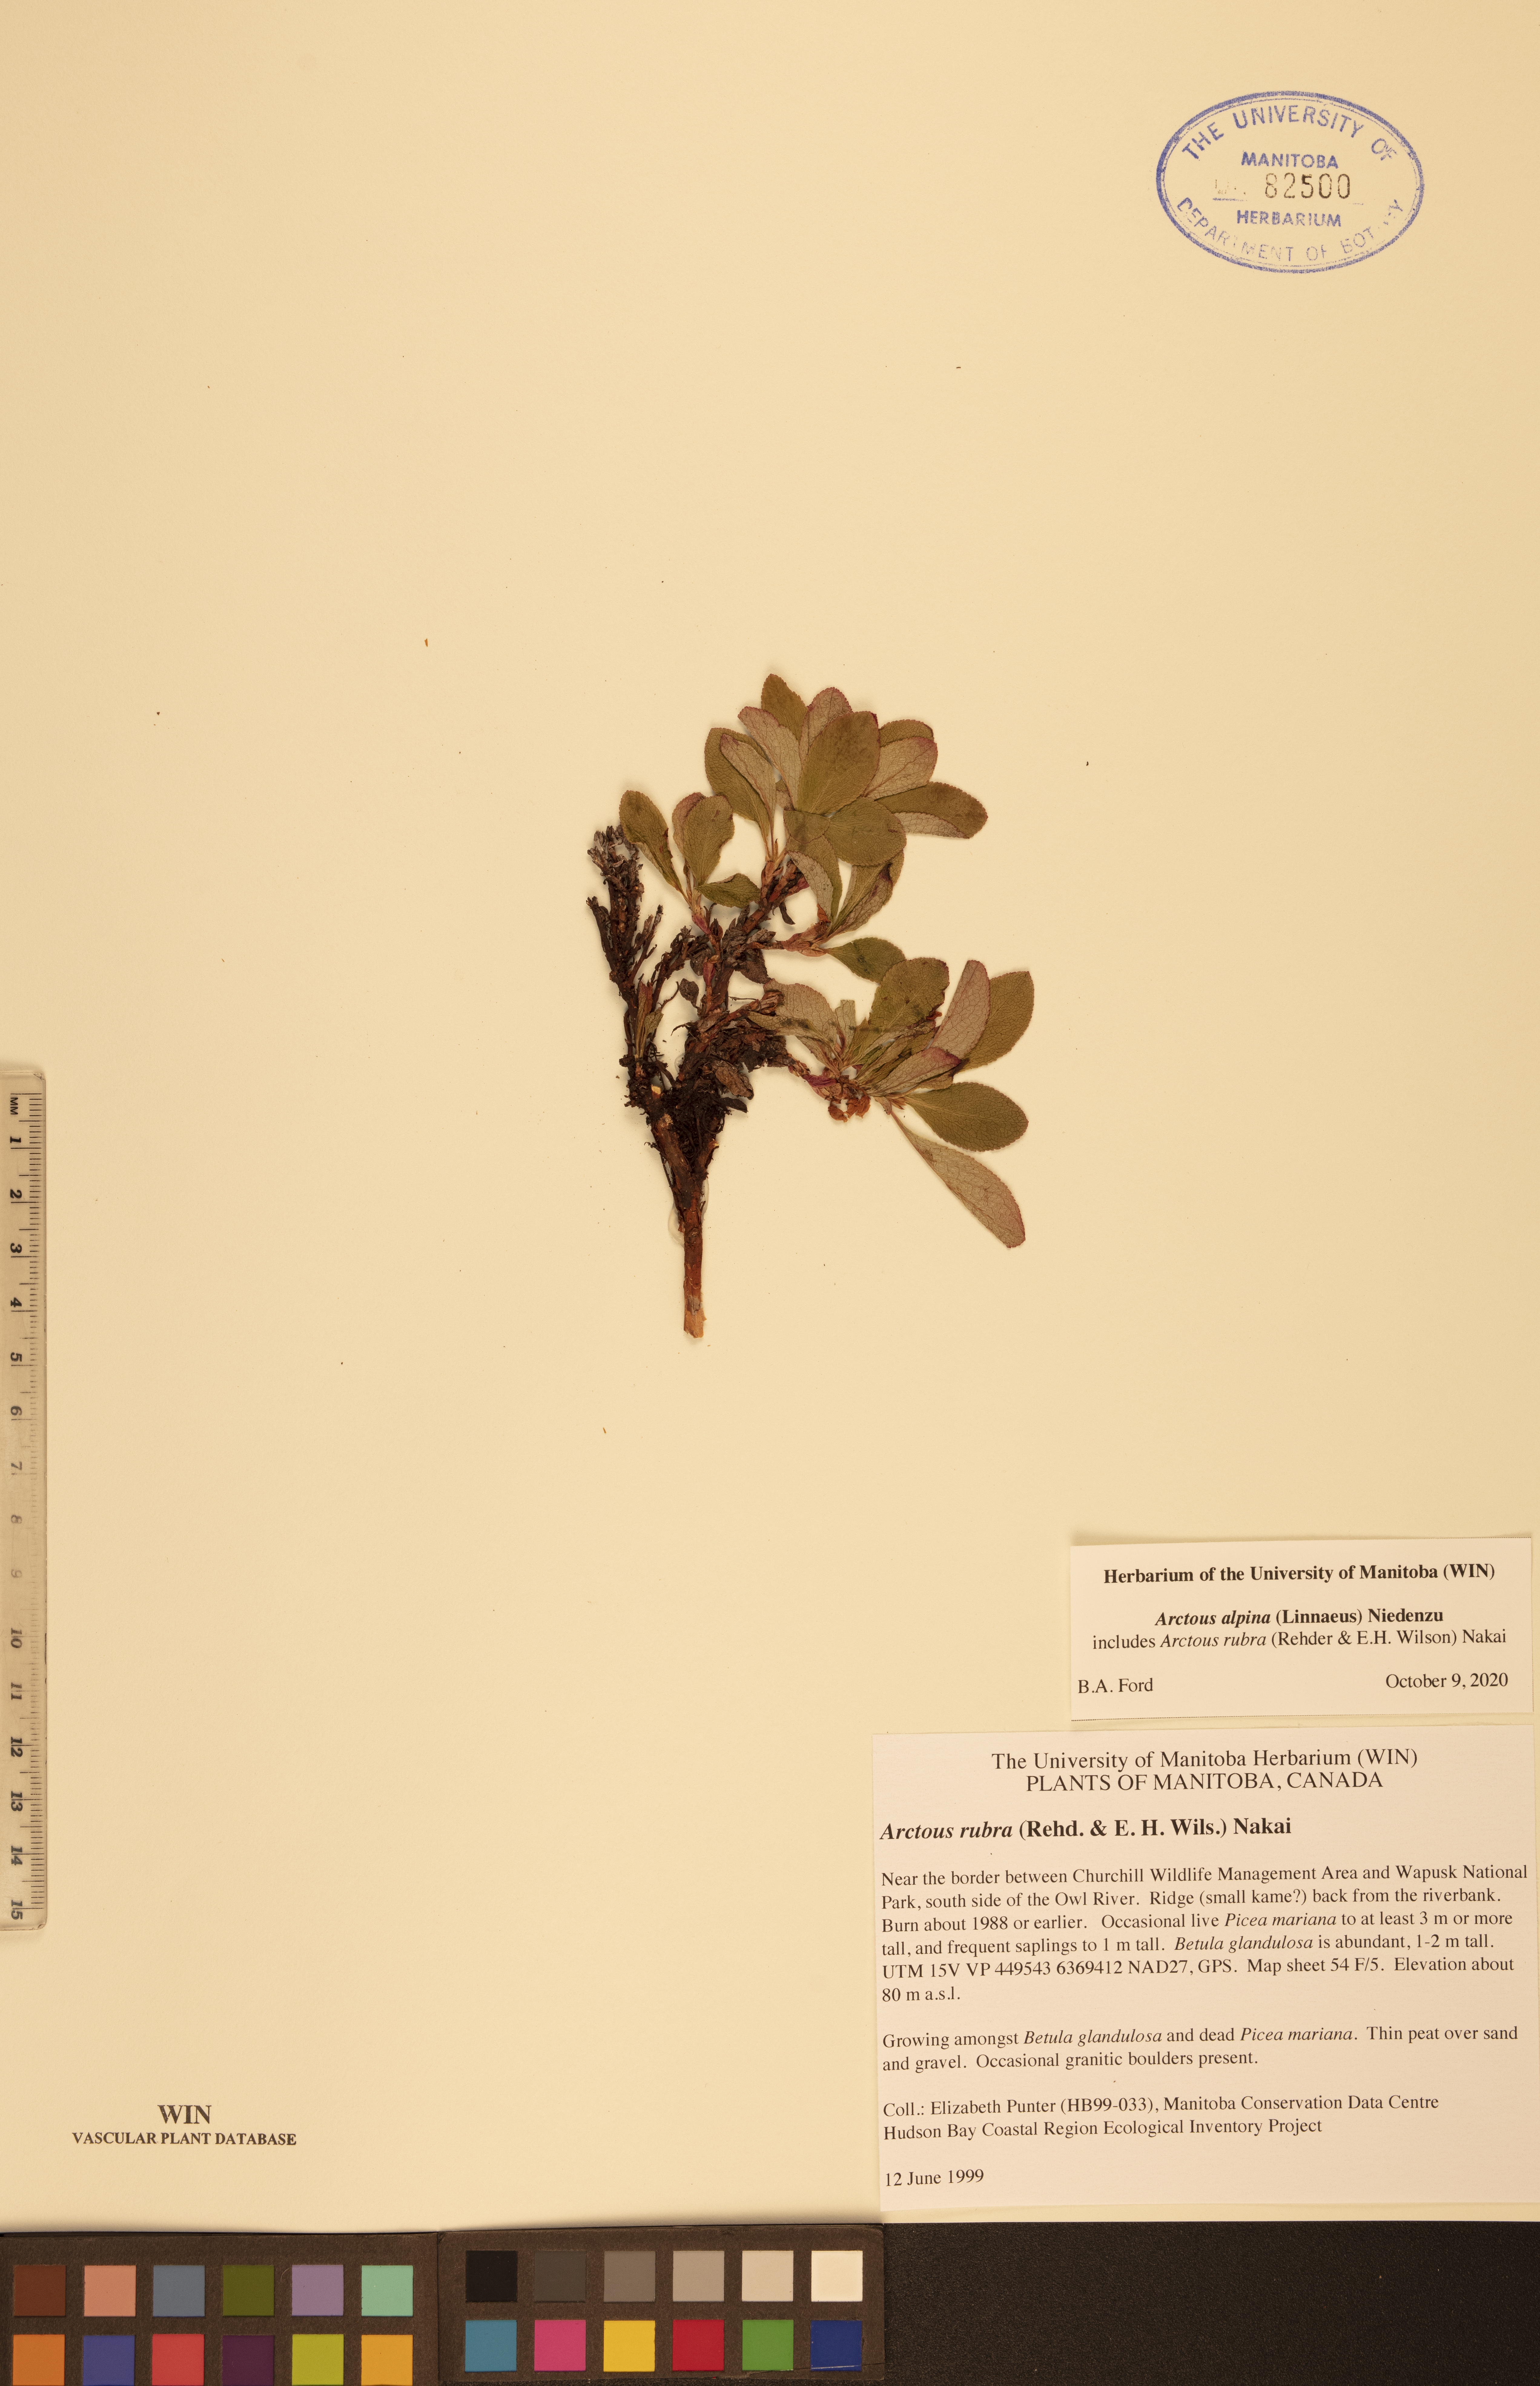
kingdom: Plantae
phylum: Tracheophyta
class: Magnoliopsida
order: Ericales
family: Ericaceae
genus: Arctostaphylos
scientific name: Arctostaphylos alpinus
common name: Alpine bearberry
